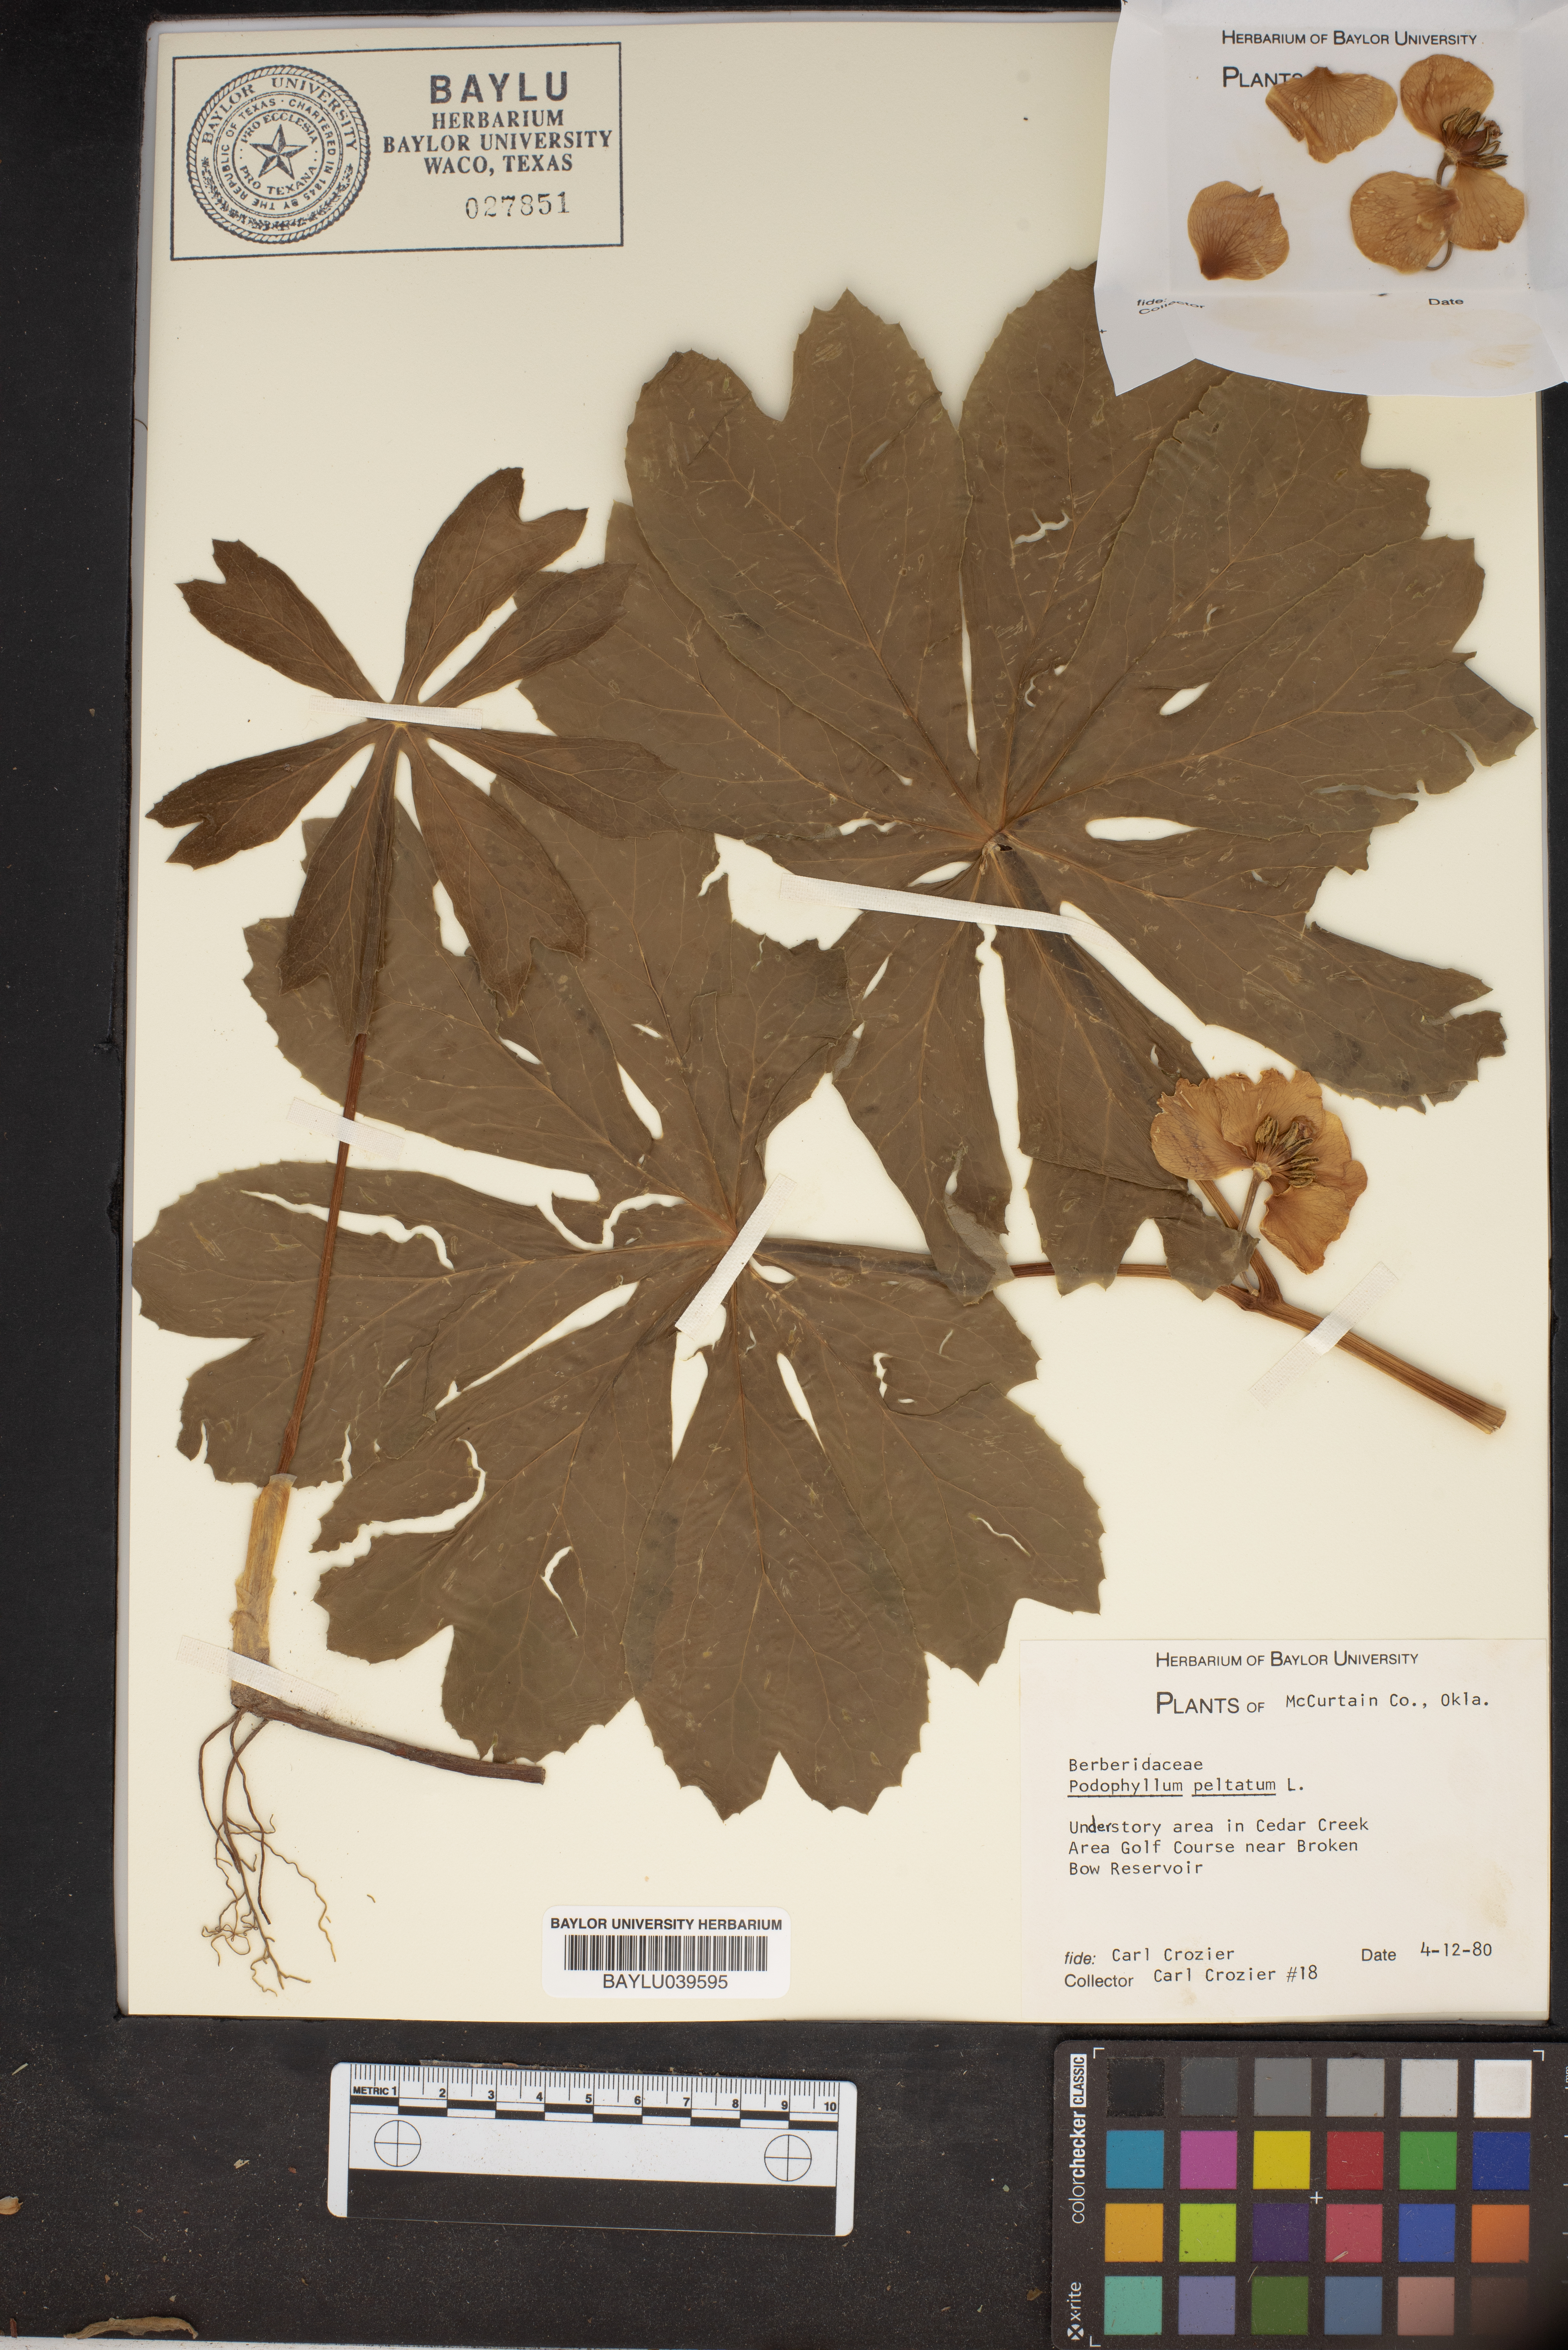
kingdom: Plantae
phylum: Tracheophyta
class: Magnoliopsida
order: Ranunculales
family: Berberidaceae
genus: Podophyllum
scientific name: Podophyllum peltatum
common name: Wild mandrake
